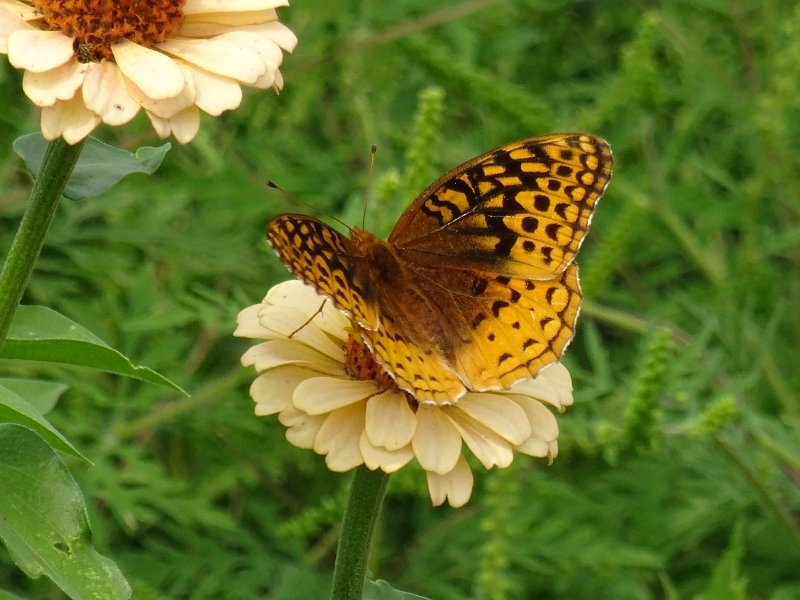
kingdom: Animalia
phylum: Arthropoda
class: Insecta
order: Lepidoptera
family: Nymphalidae
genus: Speyeria
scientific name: Speyeria cybele
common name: Great Spangled Fritillary
